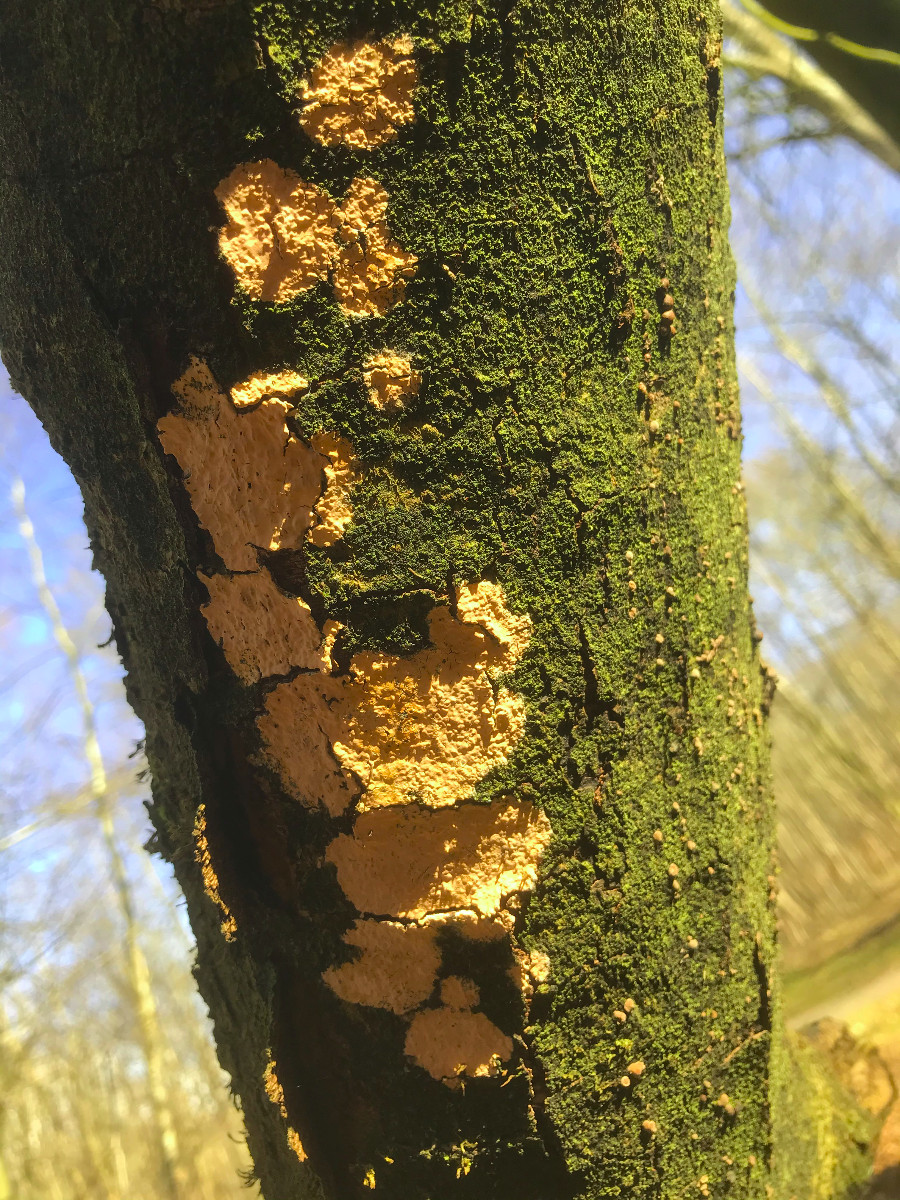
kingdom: Fungi
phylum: Basidiomycota
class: Agaricomycetes
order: Agaricales
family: Physalacriaceae
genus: Cylindrobasidium
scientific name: Cylindrobasidium evolvens
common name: sprækkehinde
